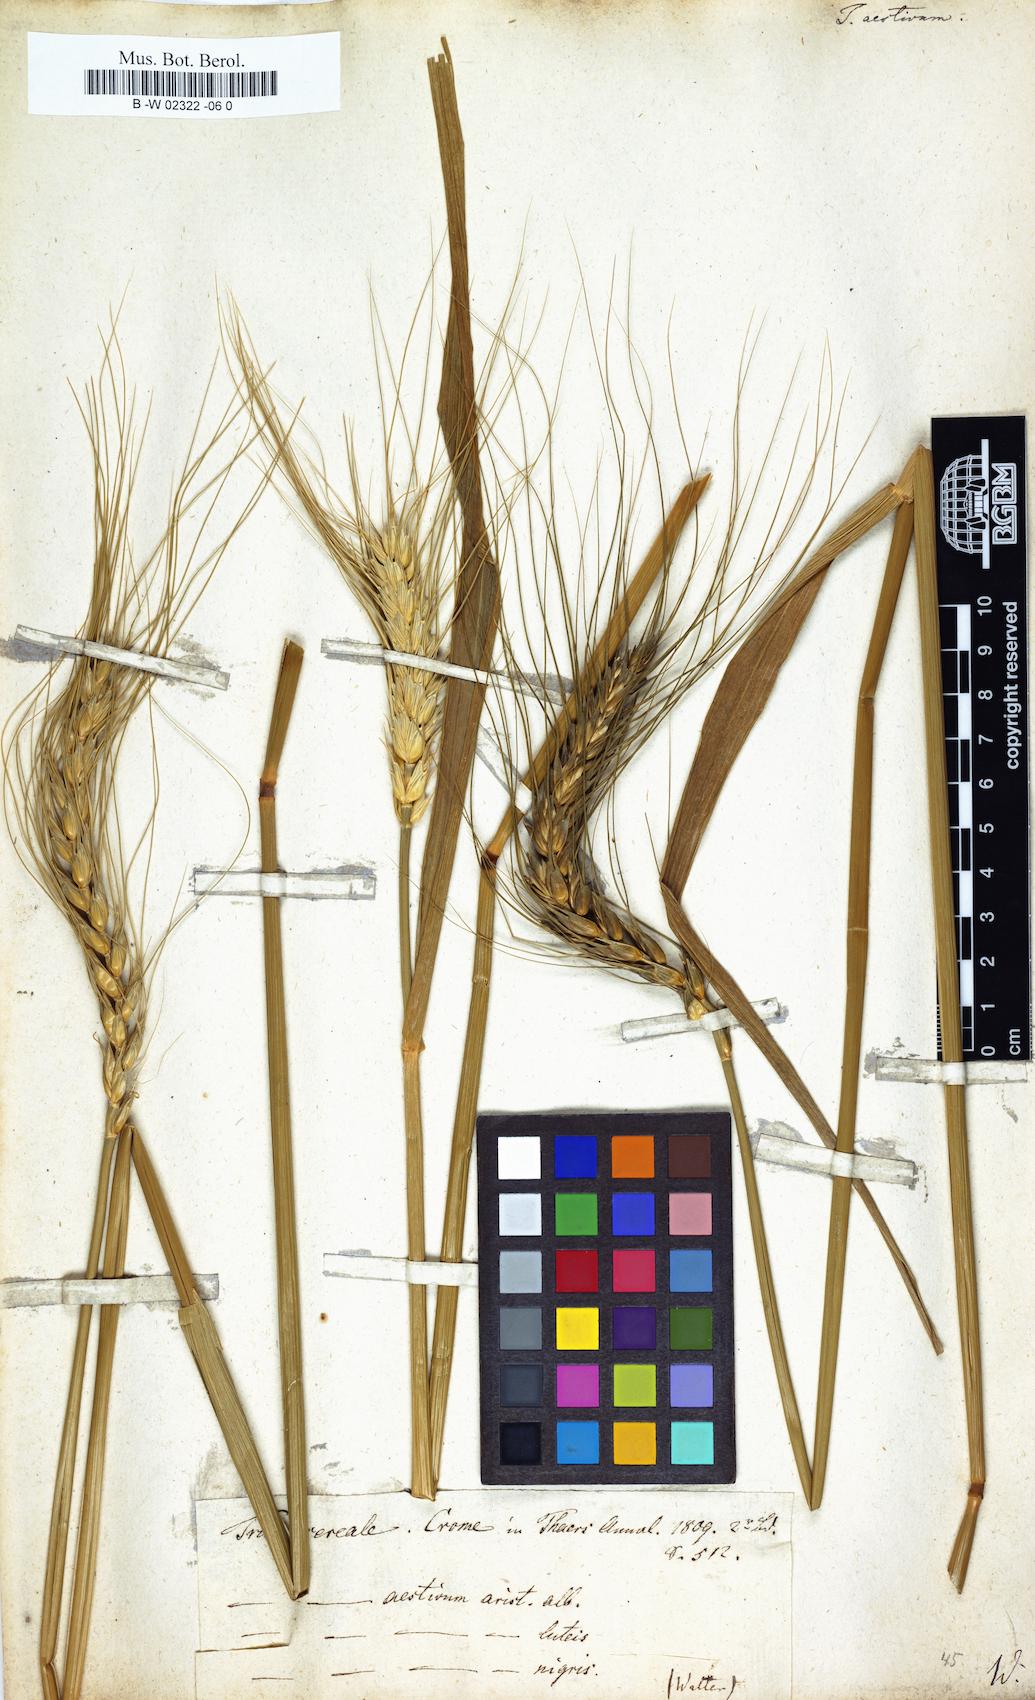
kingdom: Plantae
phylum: Tracheophyta
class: Liliopsida
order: Poales
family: Poaceae
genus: Triticum
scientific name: Triticum aestivum
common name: Common wheat
